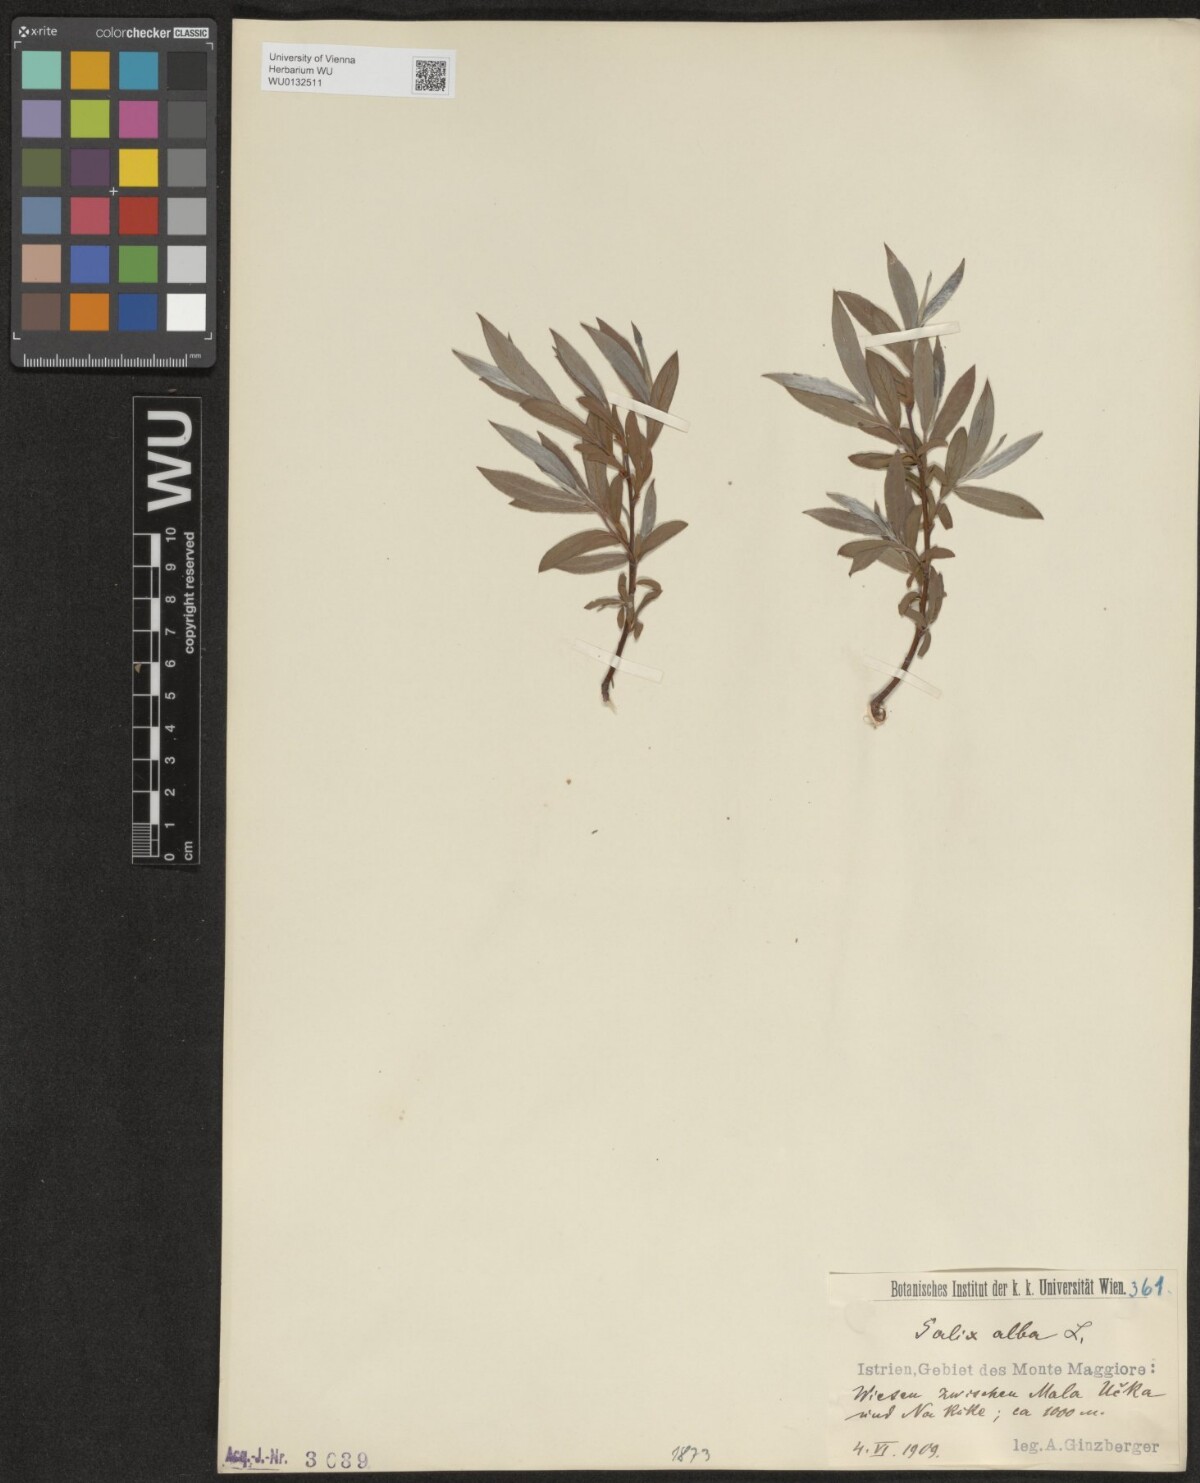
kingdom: Plantae
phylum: Tracheophyta
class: Magnoliopsida
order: Malpighiales
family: Salicaceae
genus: Salix
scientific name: Salix alba
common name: White willow
